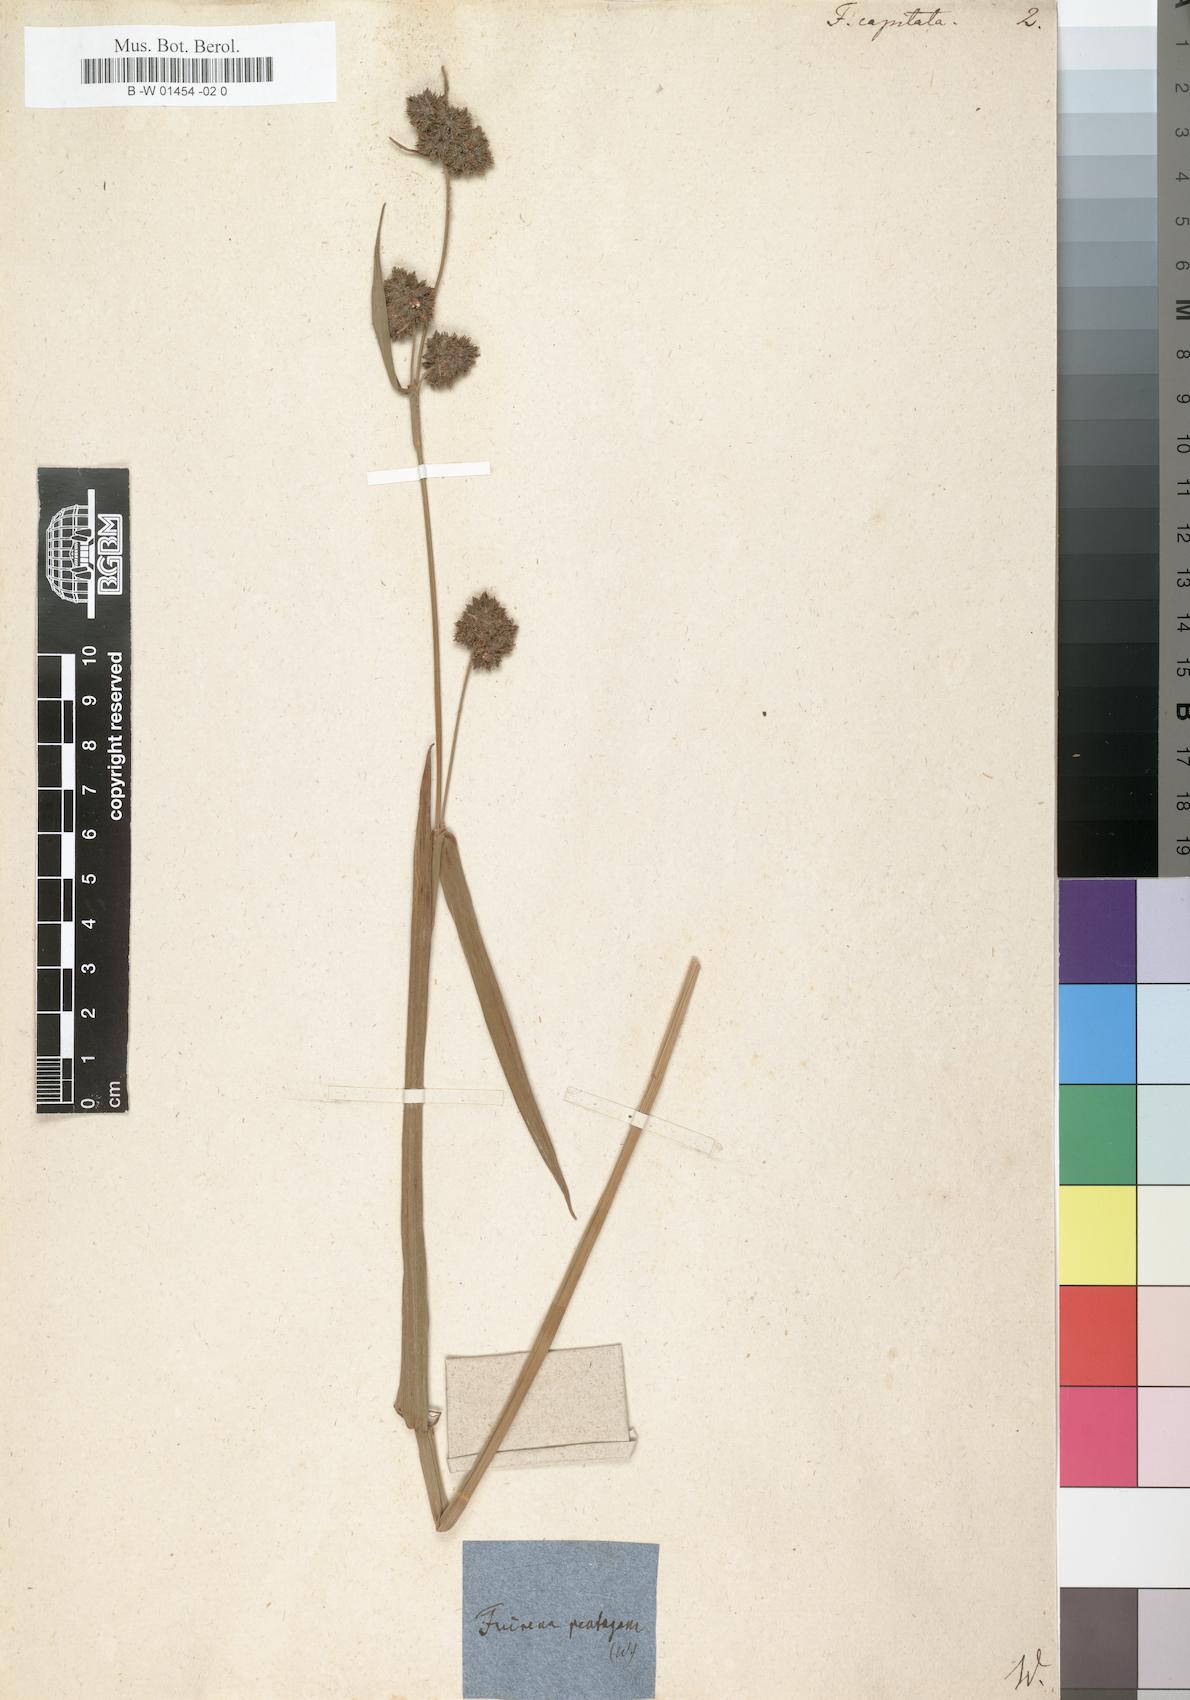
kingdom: Plantae
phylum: Tracheophyta
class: Liliopsida
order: Poales
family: Cyperaceae
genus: Fuirena
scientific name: Fuirena
